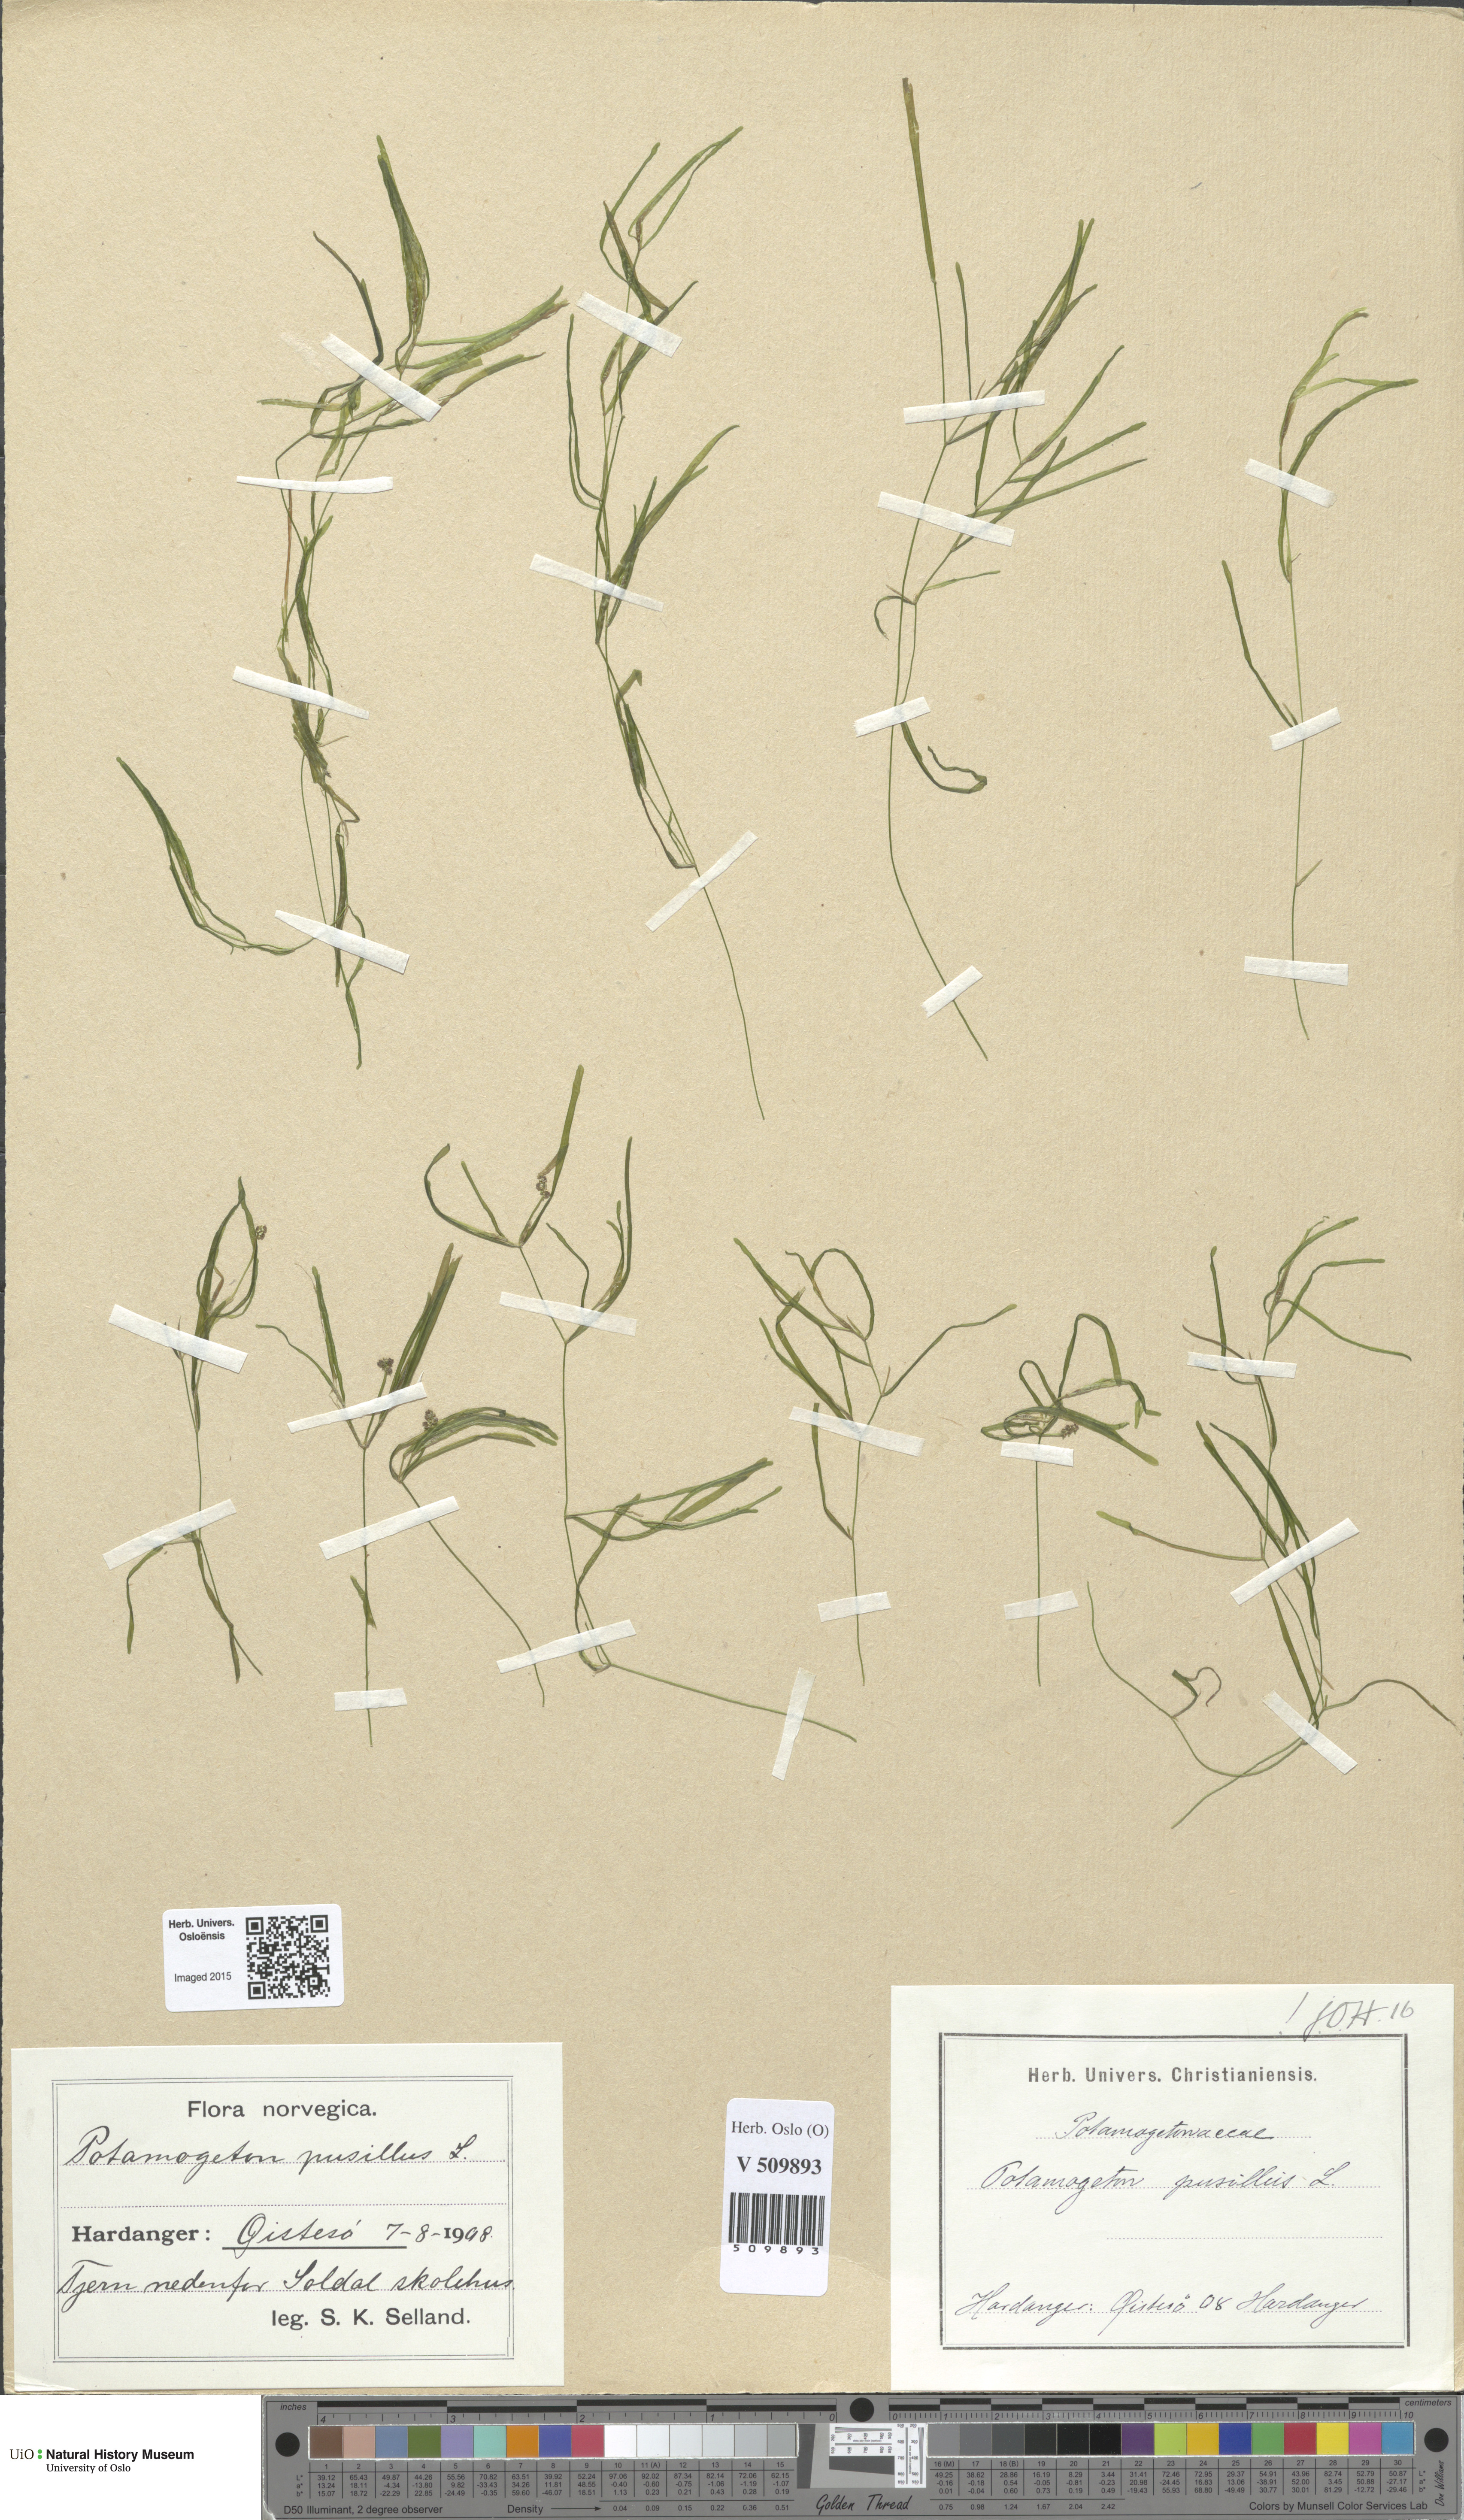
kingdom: Plantae
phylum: Tracheophyta
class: Liliopsida
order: Alismatales
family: Potamogetonaceae
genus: Potamogeton
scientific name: Potamogeton berchtoldii
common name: Small pondweed
